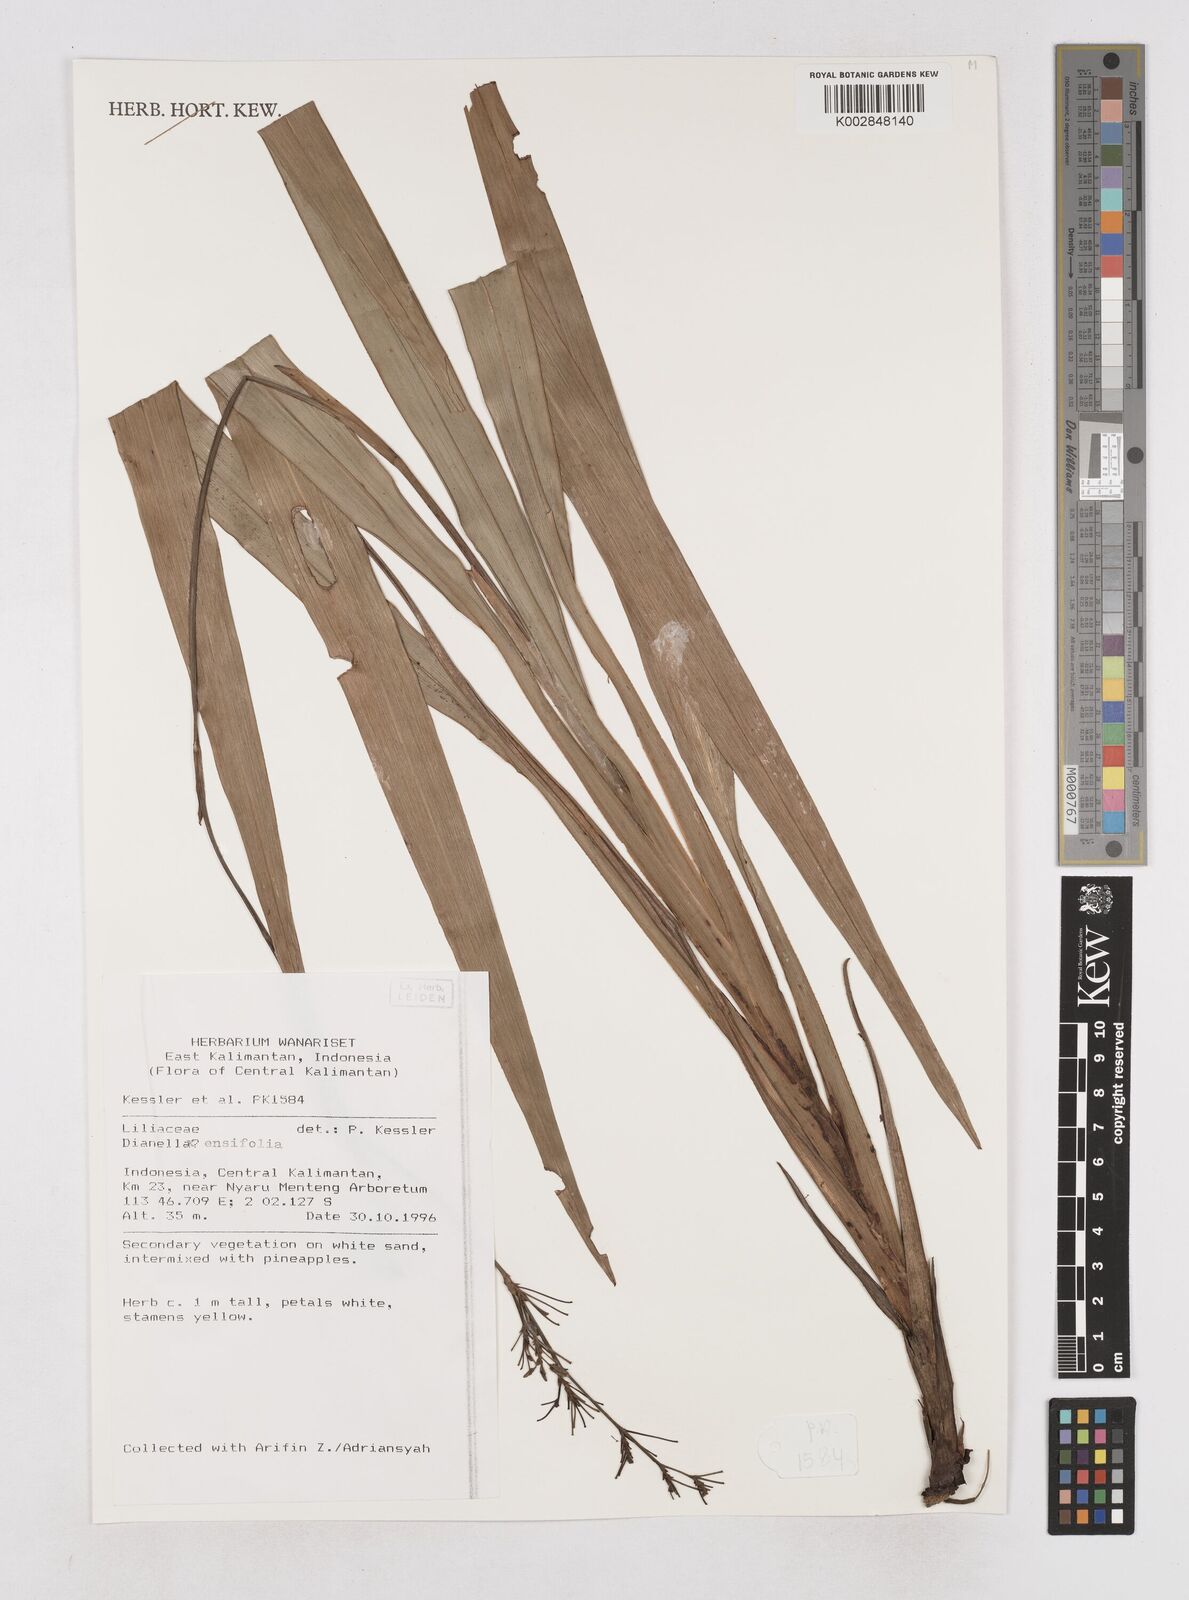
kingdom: Plantae
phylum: Tracheophyta
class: Liliopsida
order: Asparagales
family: Asphodelaceae
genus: Dianella
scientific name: Dianella ensifolia
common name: New zealand lilyplant
